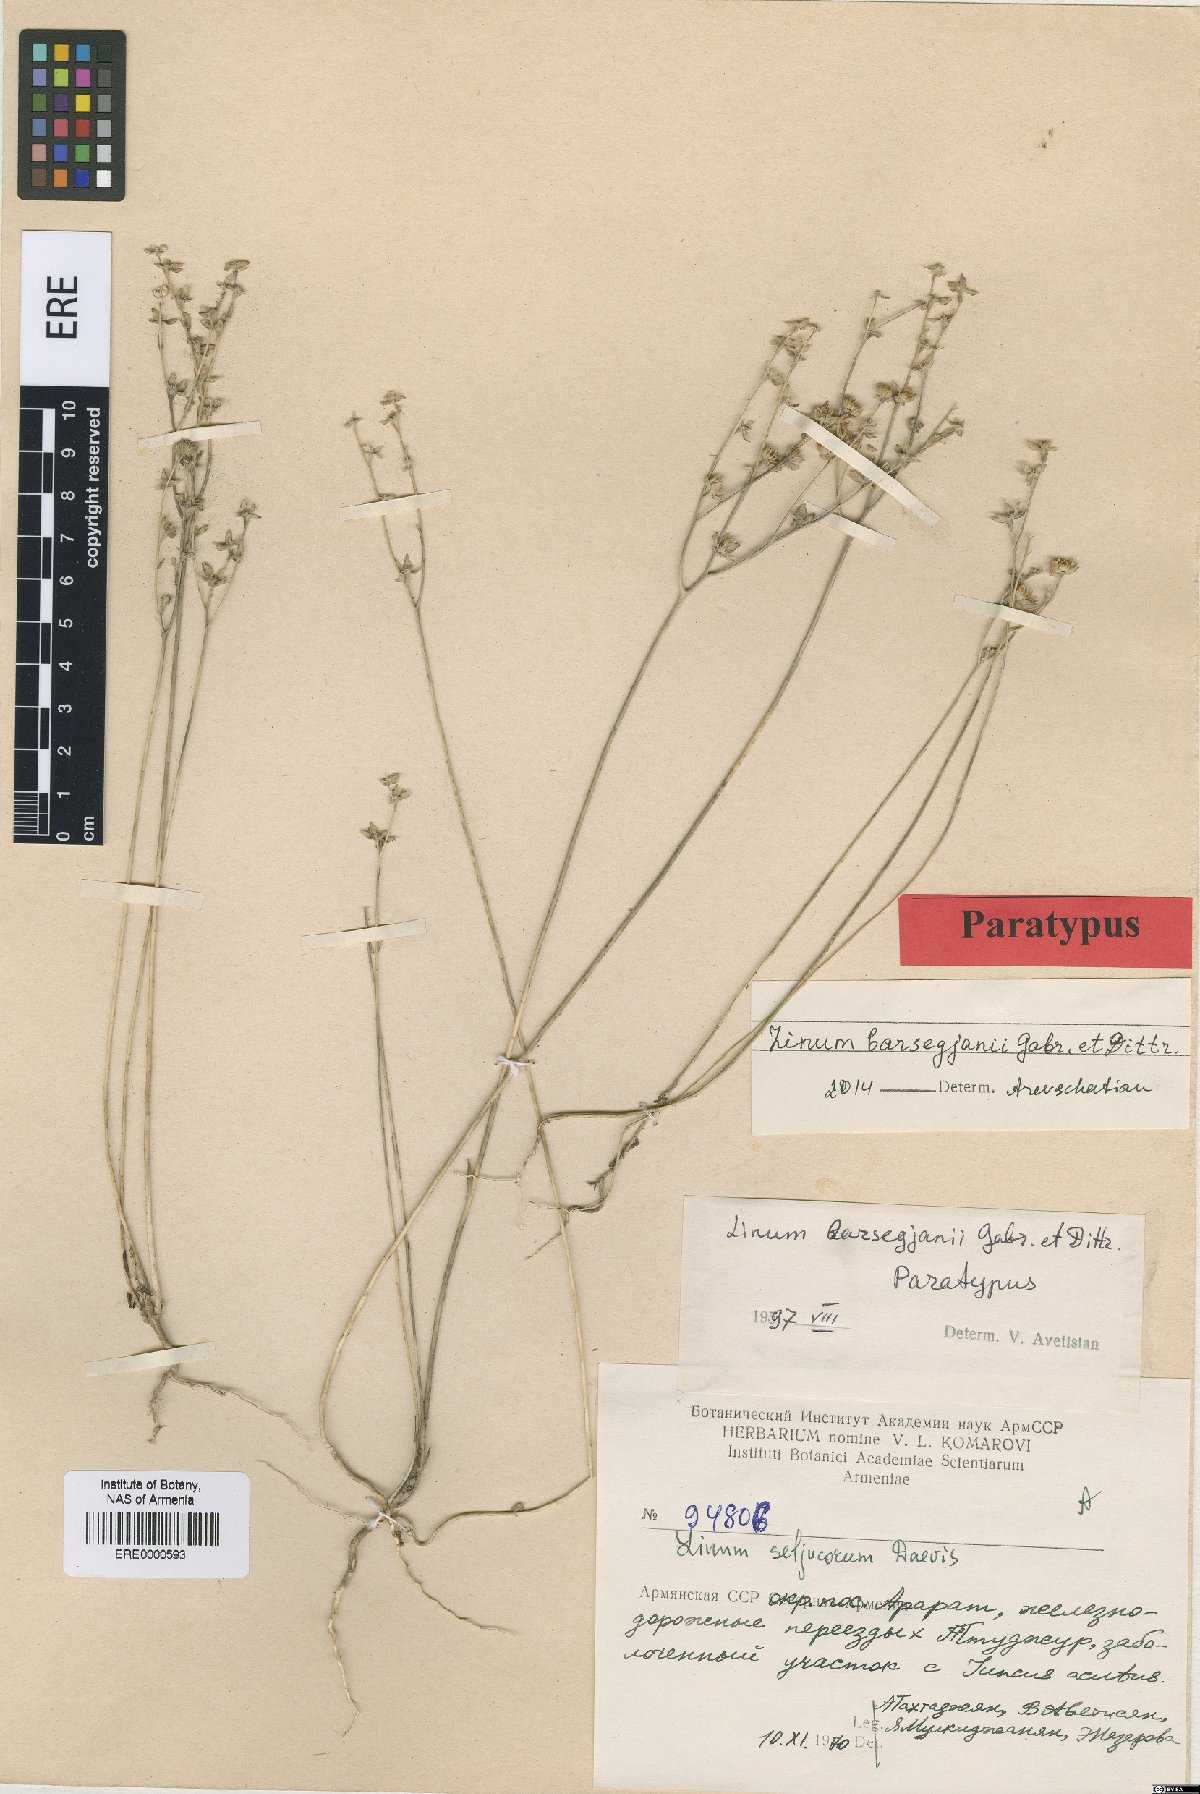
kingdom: Plantae
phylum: Tracheophyta
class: Magnoliopsida
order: Malpighiales
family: Linaceae
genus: Linum
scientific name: Linum seljukorum
